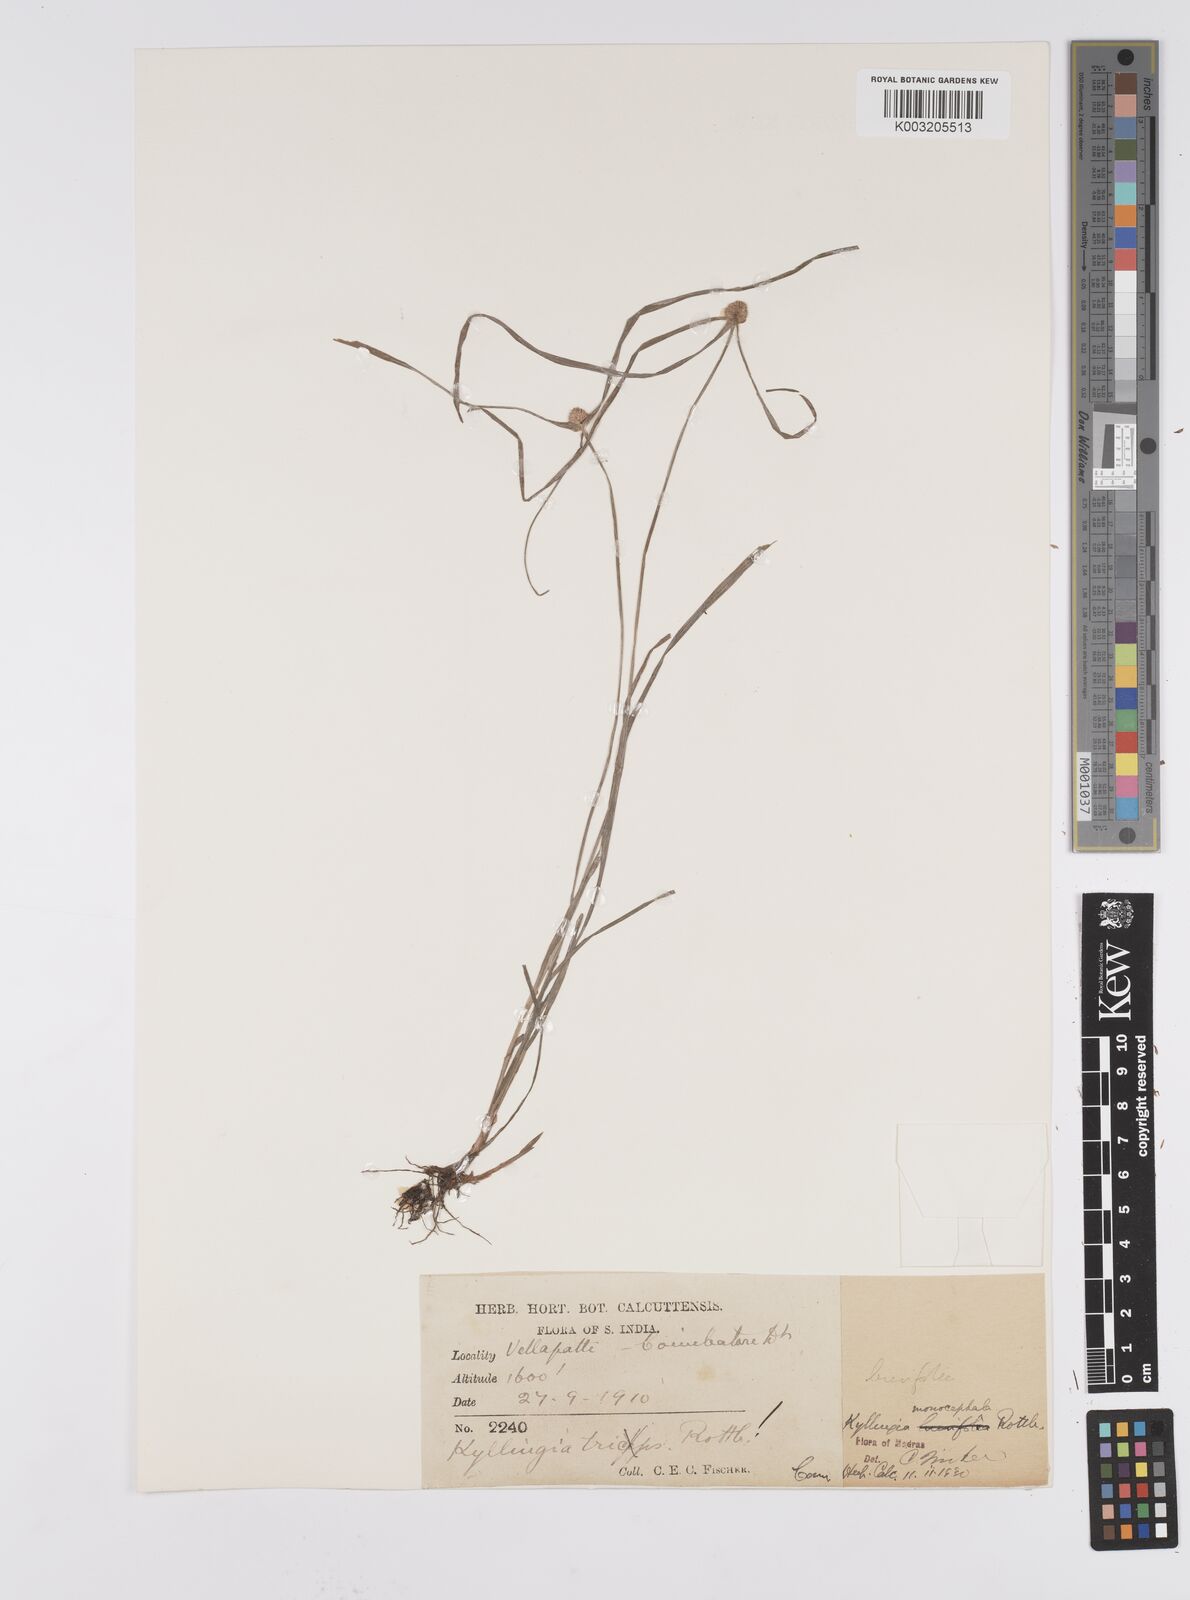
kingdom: Plantae
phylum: Tracheophyta
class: Liliopsida
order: Poales
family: Cyperaceae
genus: Cyperus
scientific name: Cyperus nemoralis
